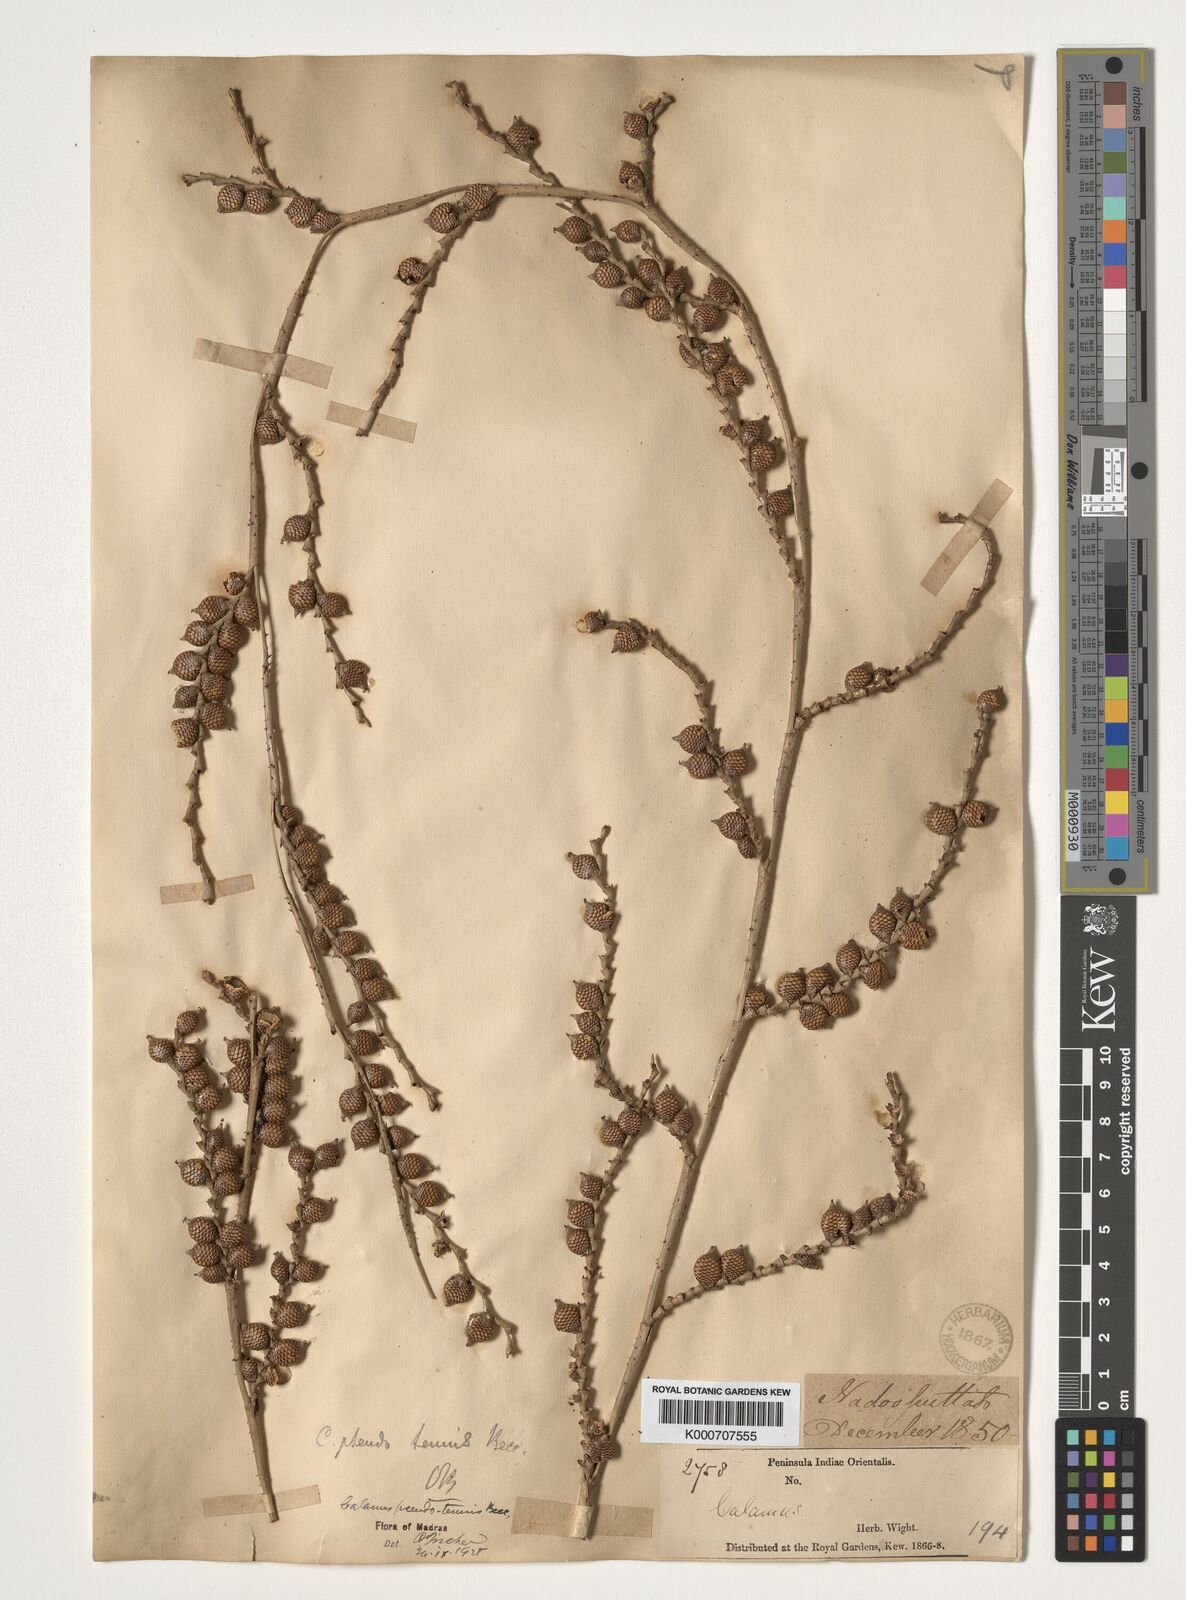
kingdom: Plantae
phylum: Tracheophyta
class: Liliopsida
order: Arecales
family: Arecaceae
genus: Calamus
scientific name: Calamus pseudotenuis
